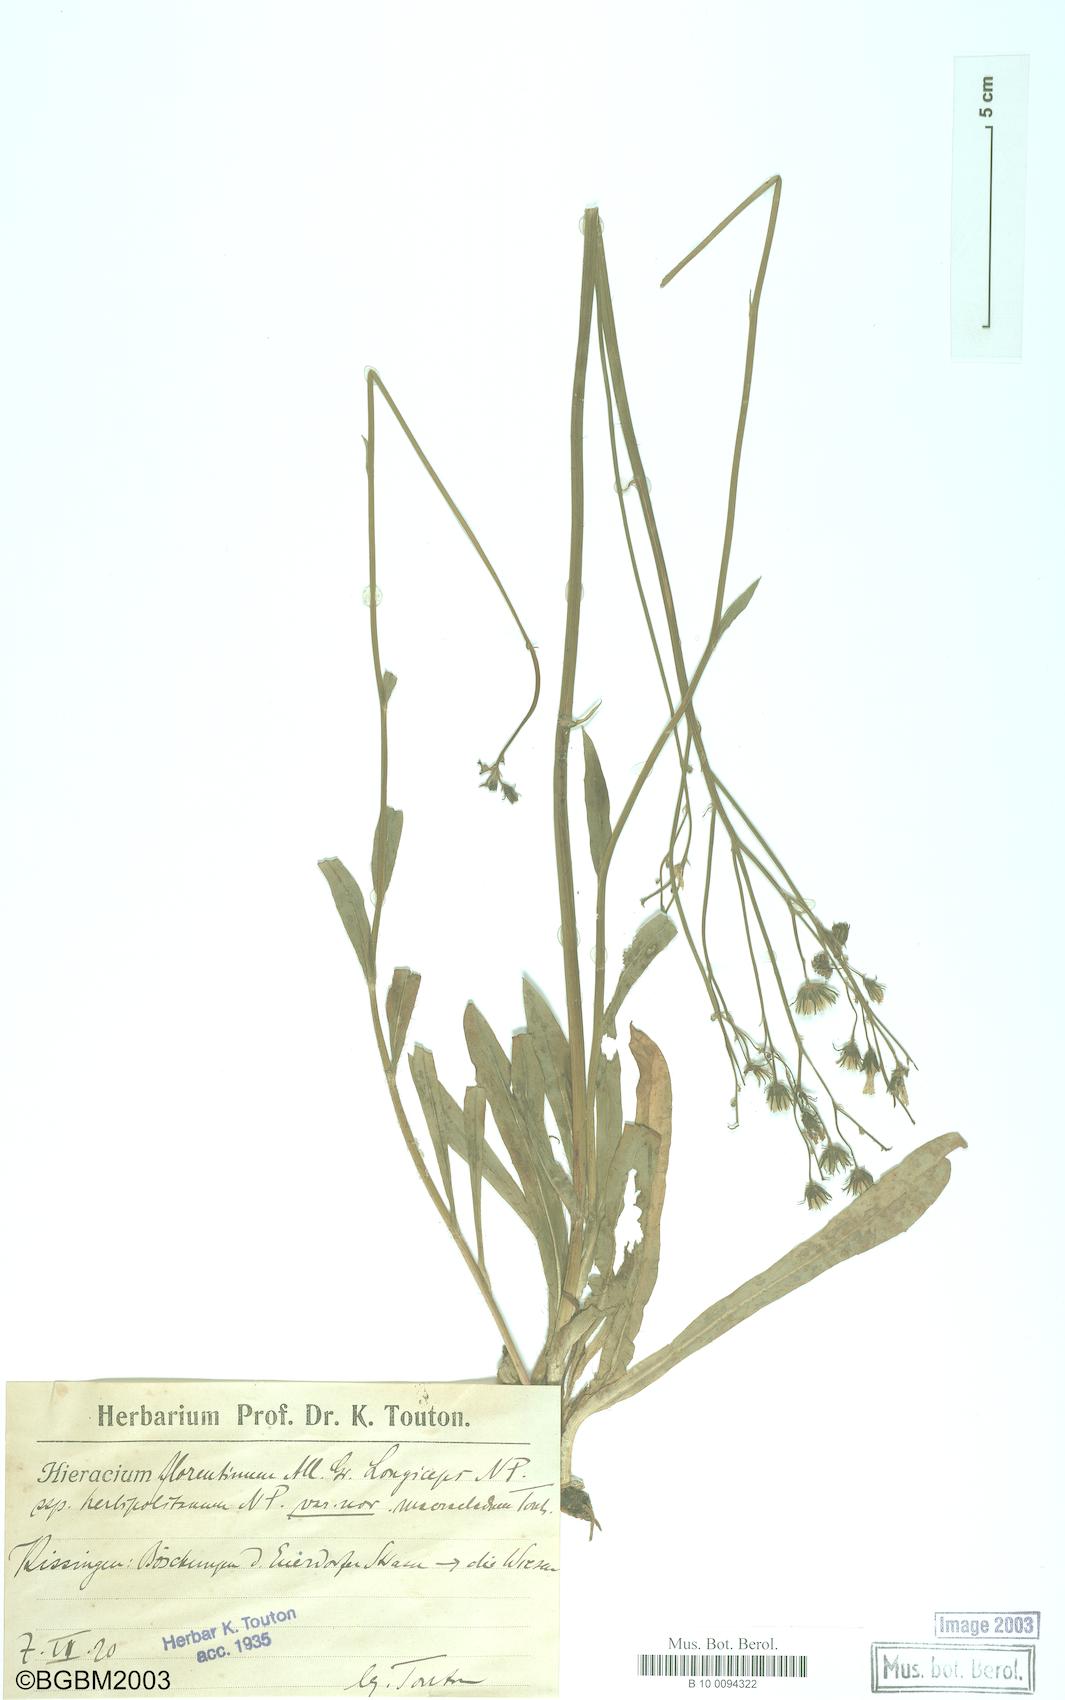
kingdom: Plantae
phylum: Tracheophyta
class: Magnoliopsida
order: Asterales
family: Asteraceae
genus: Hieracium
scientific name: Hieracium florentinum
